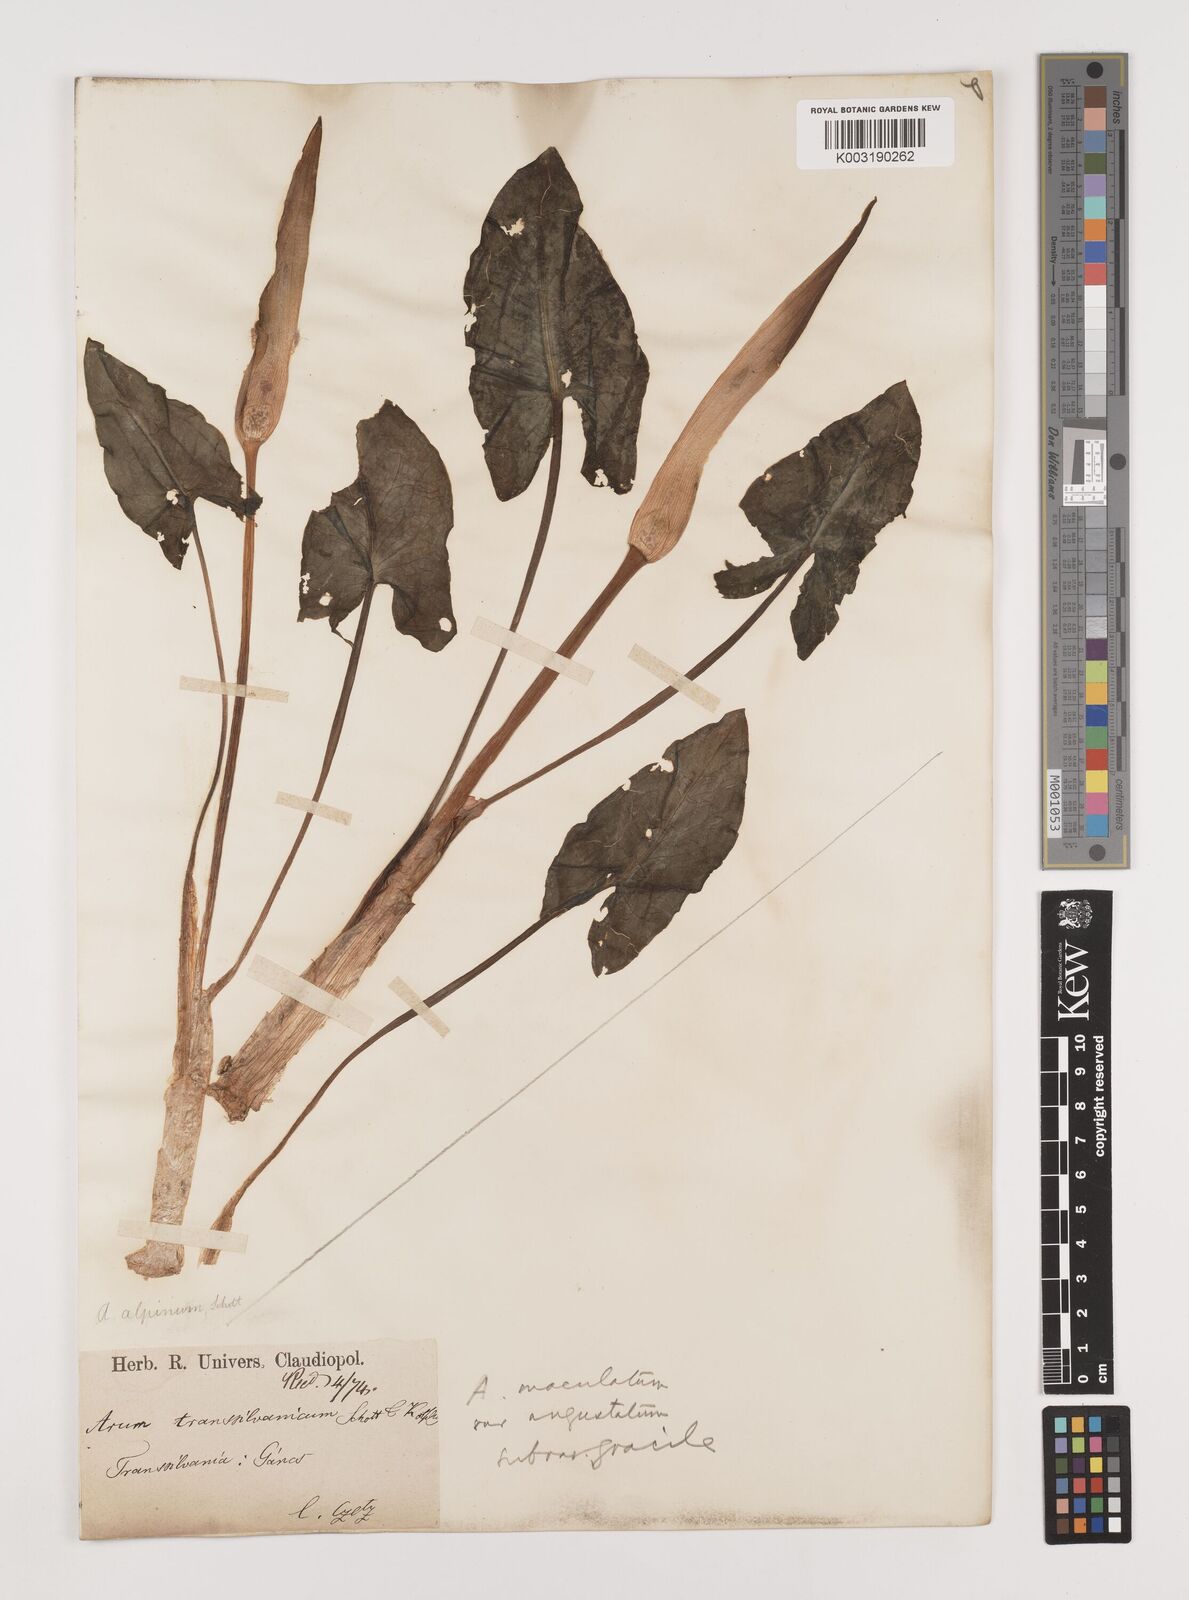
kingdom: Plantae
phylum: Tracheophyta
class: Liliopsida
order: Alismatales
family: Araceae
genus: Arum
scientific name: Arum cylindraceum
